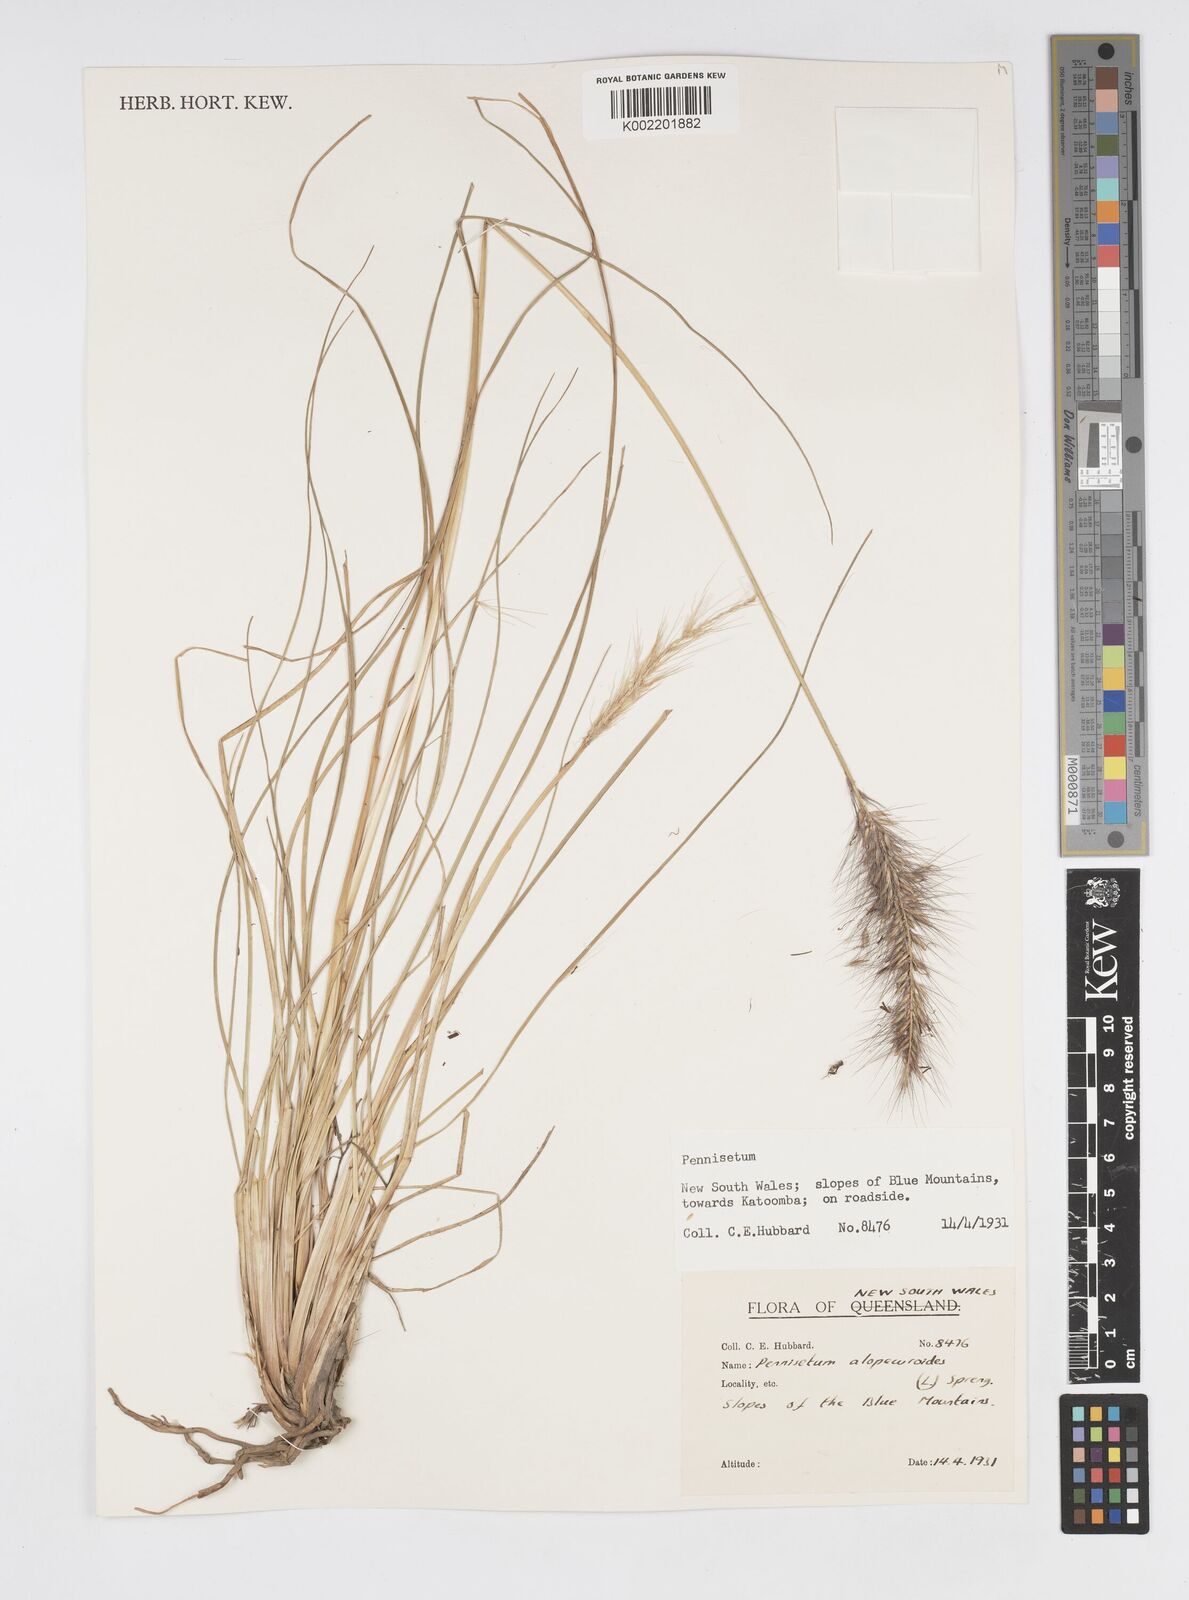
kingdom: Plantae
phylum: Tracheophyta
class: Liliopsida
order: Poales
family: Poaceae
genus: Cenchrus
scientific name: Cenchrus alopecuroides
